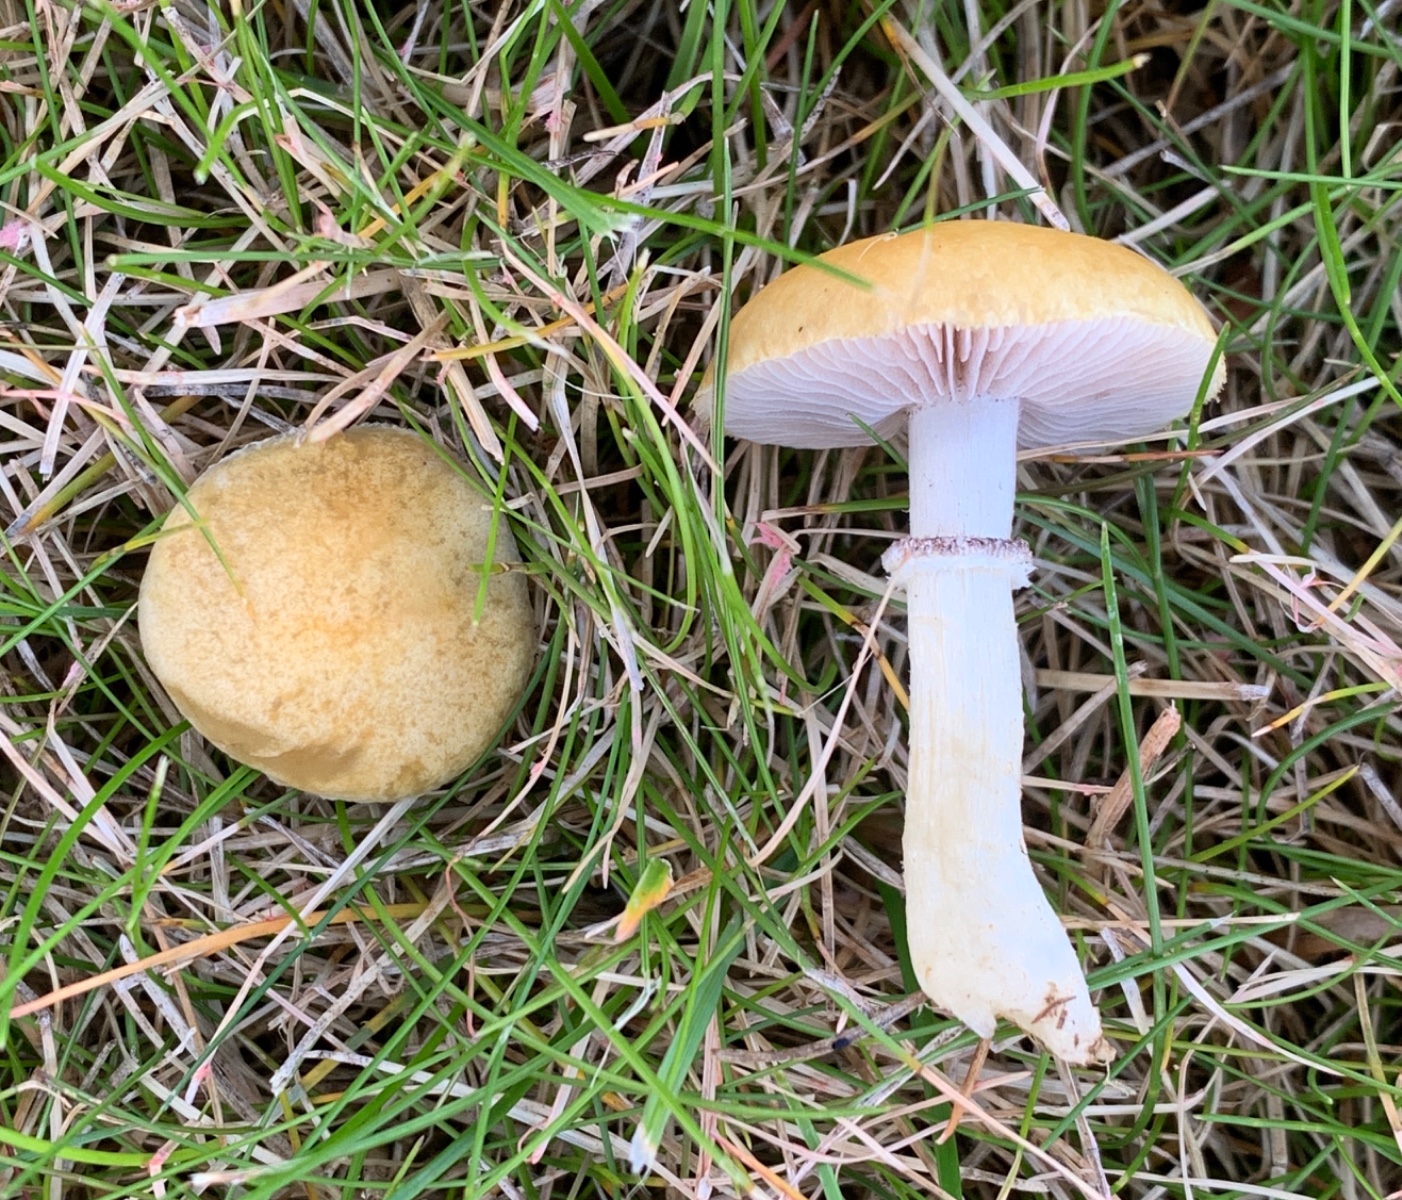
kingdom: Fungi
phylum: Basidiomycota
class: Agaricomycetes
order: Agaricales
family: Hymenogastraceae
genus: Psilocybe
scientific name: Psilocybe coronilla
